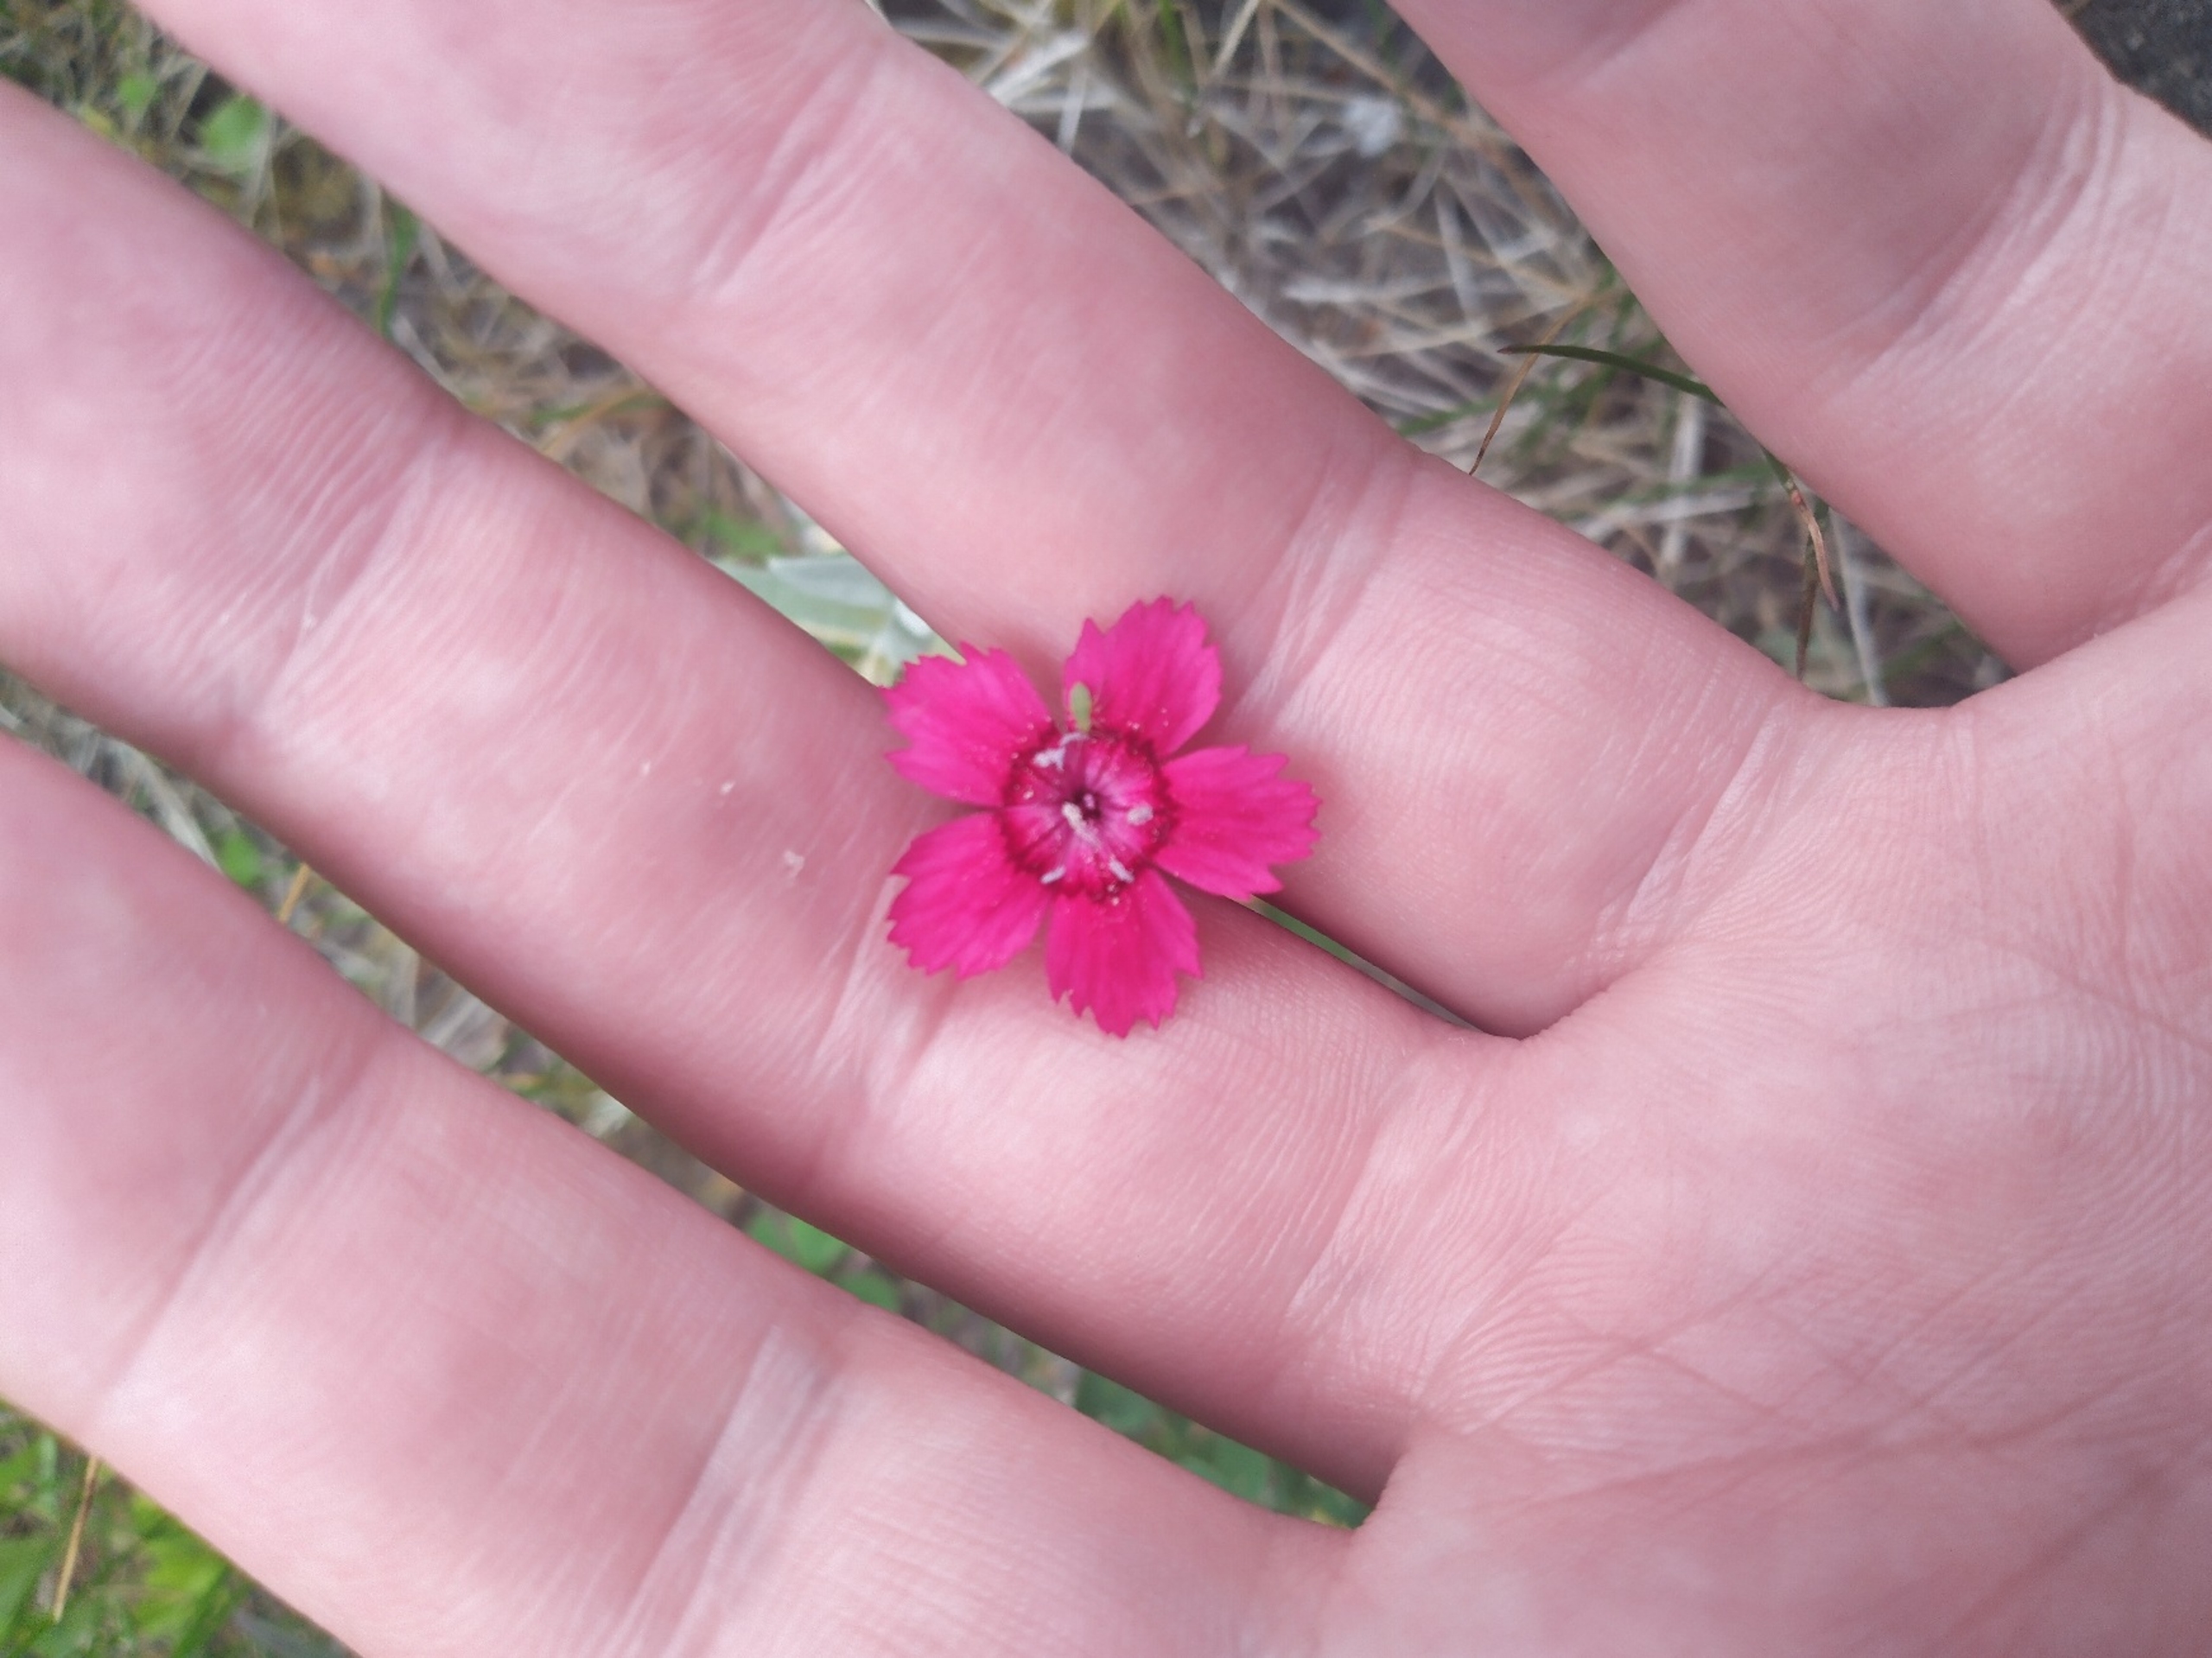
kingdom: Plantae
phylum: Tracheophyta
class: Magnoliopsida
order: Caryophyllales
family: Caryophyllaceae
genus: Dianthus
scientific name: Dianthus deltoides
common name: Bakke-nellike
